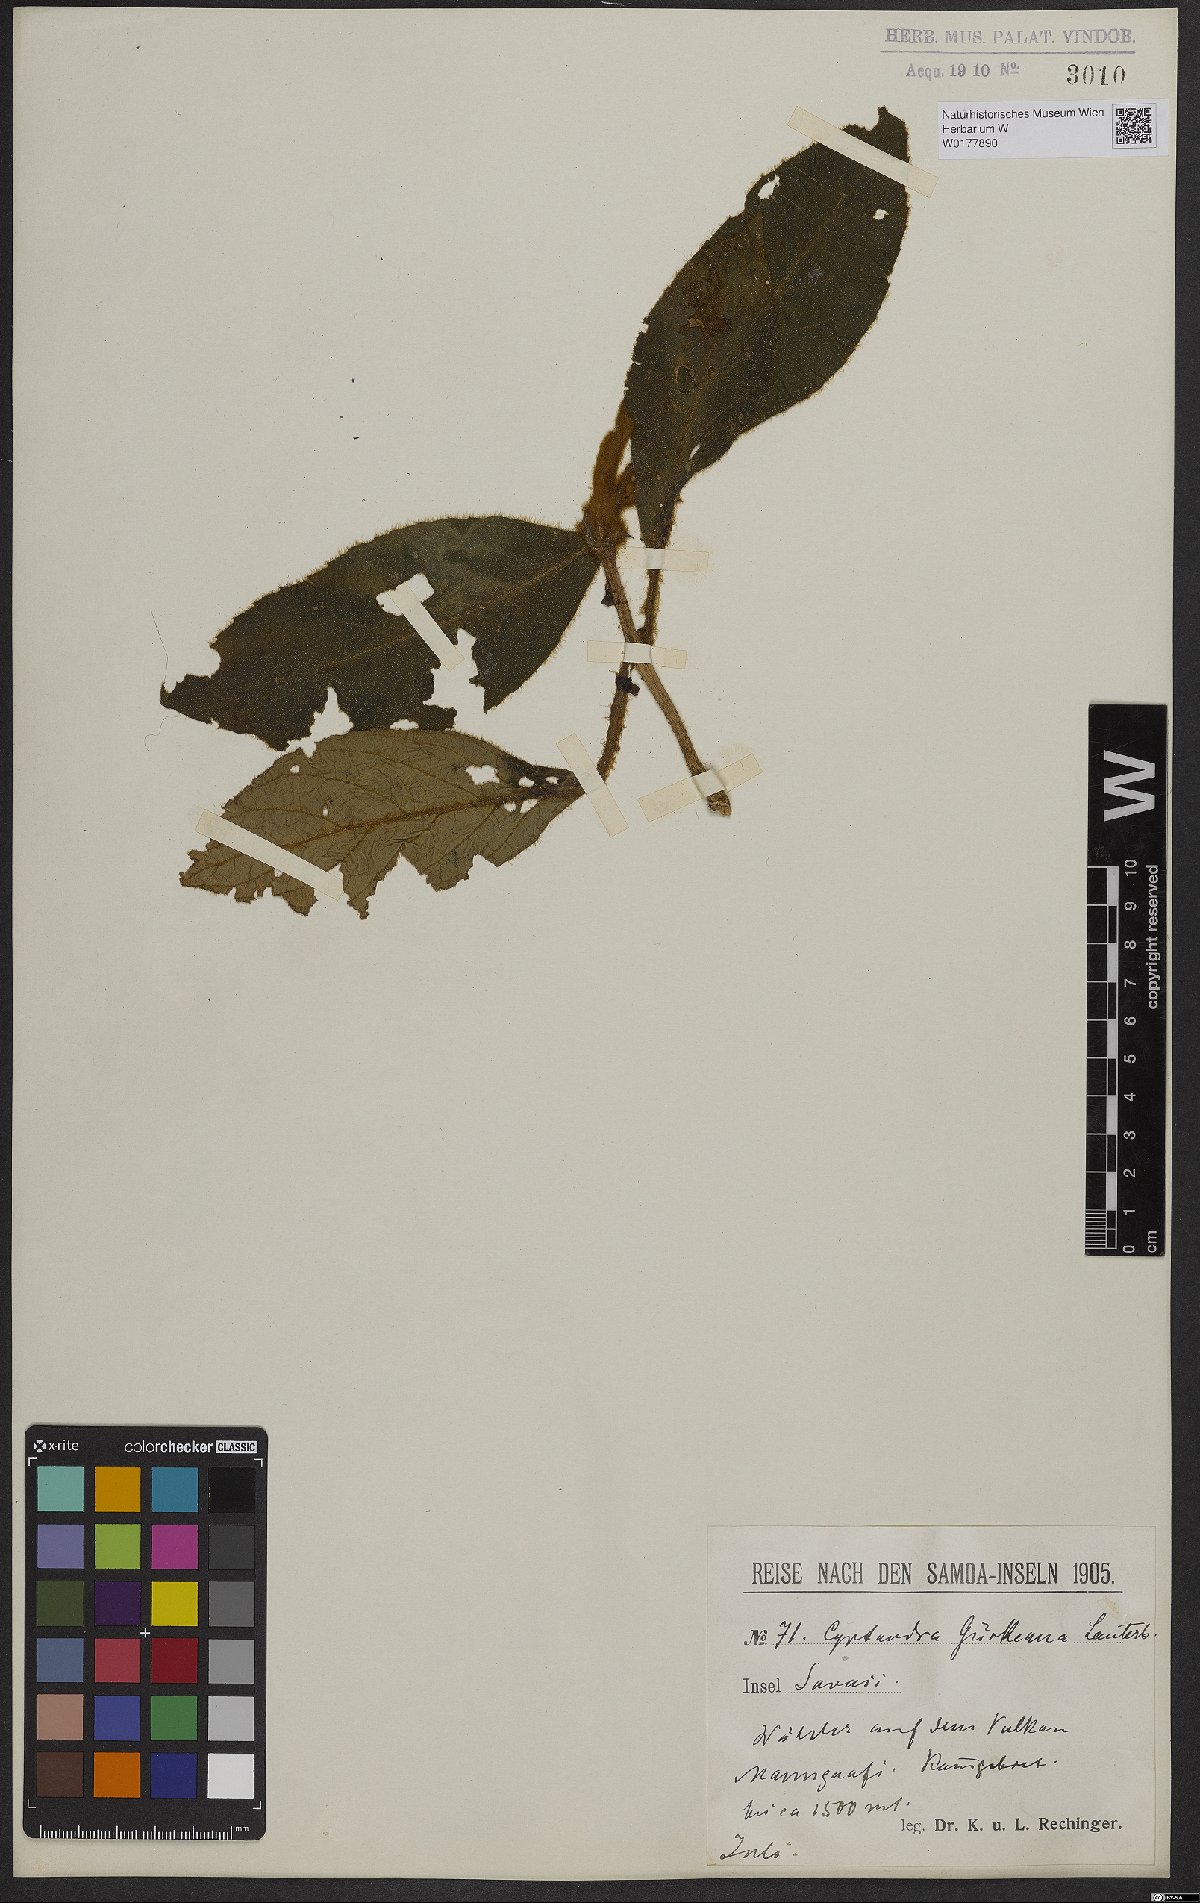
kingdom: Plantae
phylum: Tracheophyta
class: Magnoliopsida
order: Lamiales
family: Gesneriaceae
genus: Cyrtandra
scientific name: Cyrtandra guerkeana
